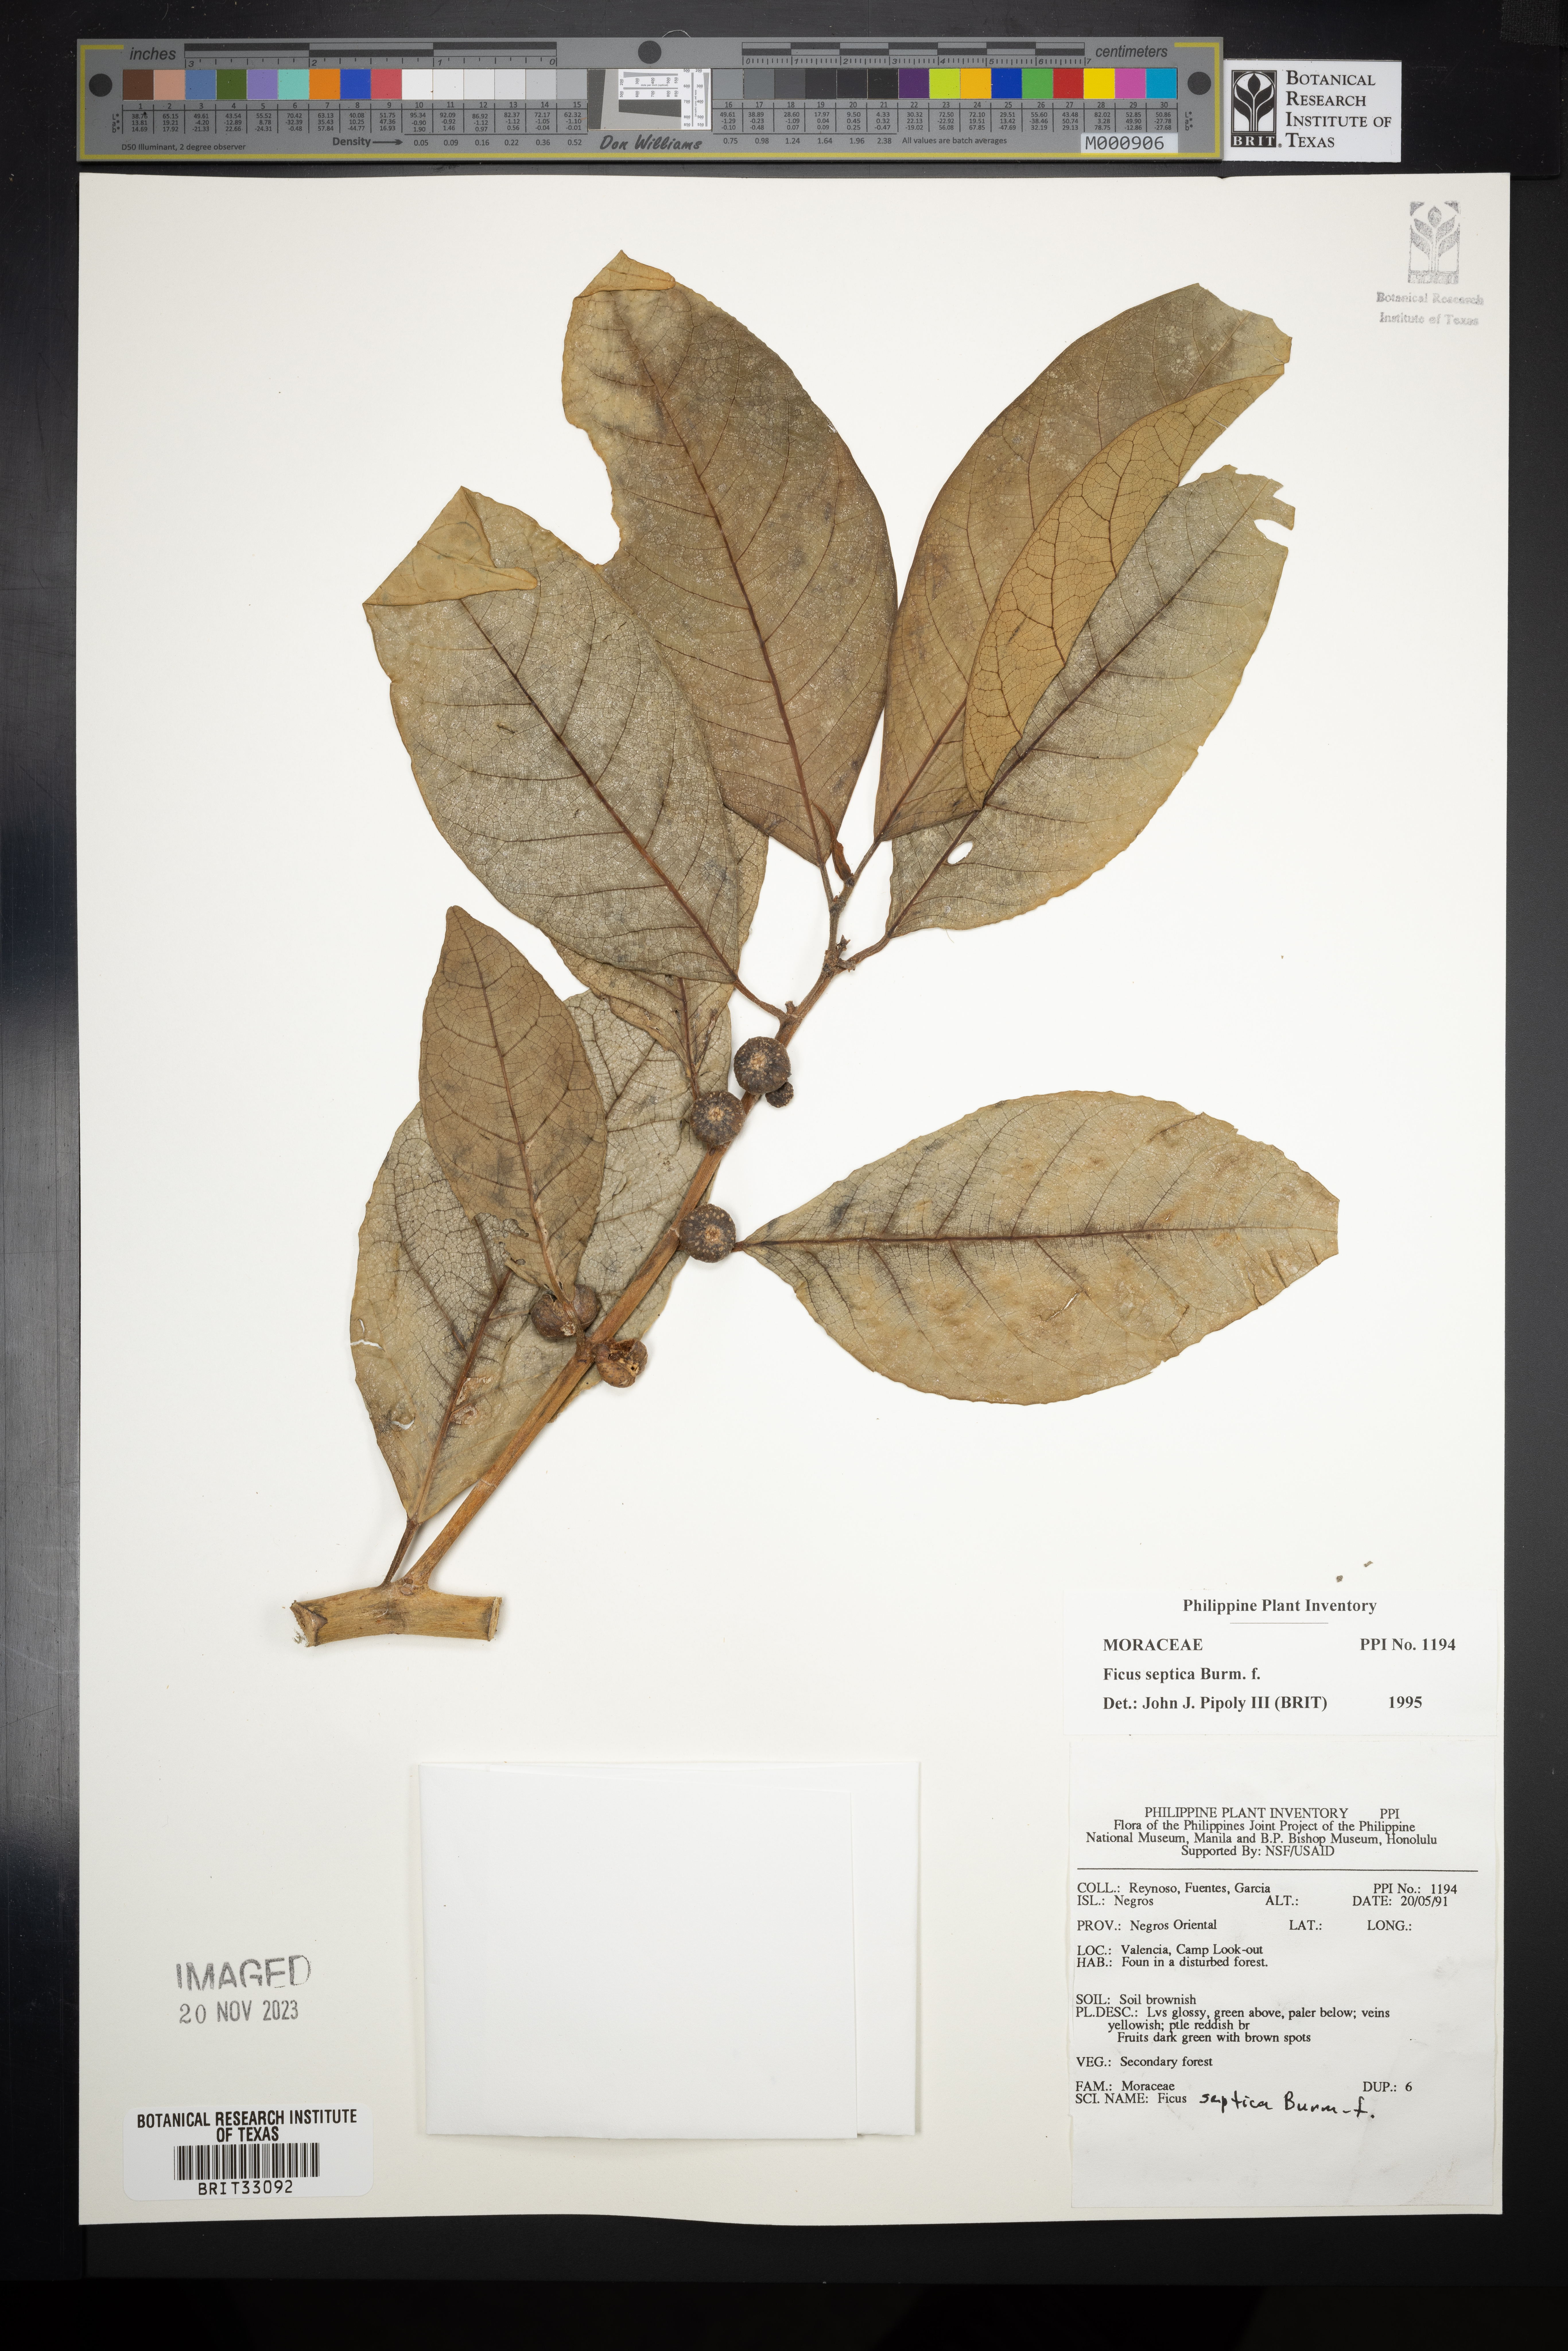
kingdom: Plantae
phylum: Tracheophyta
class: Magnoliopsida
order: Rosales
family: Moraceae
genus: Ficus
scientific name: Ficus septica
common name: Septic fig
